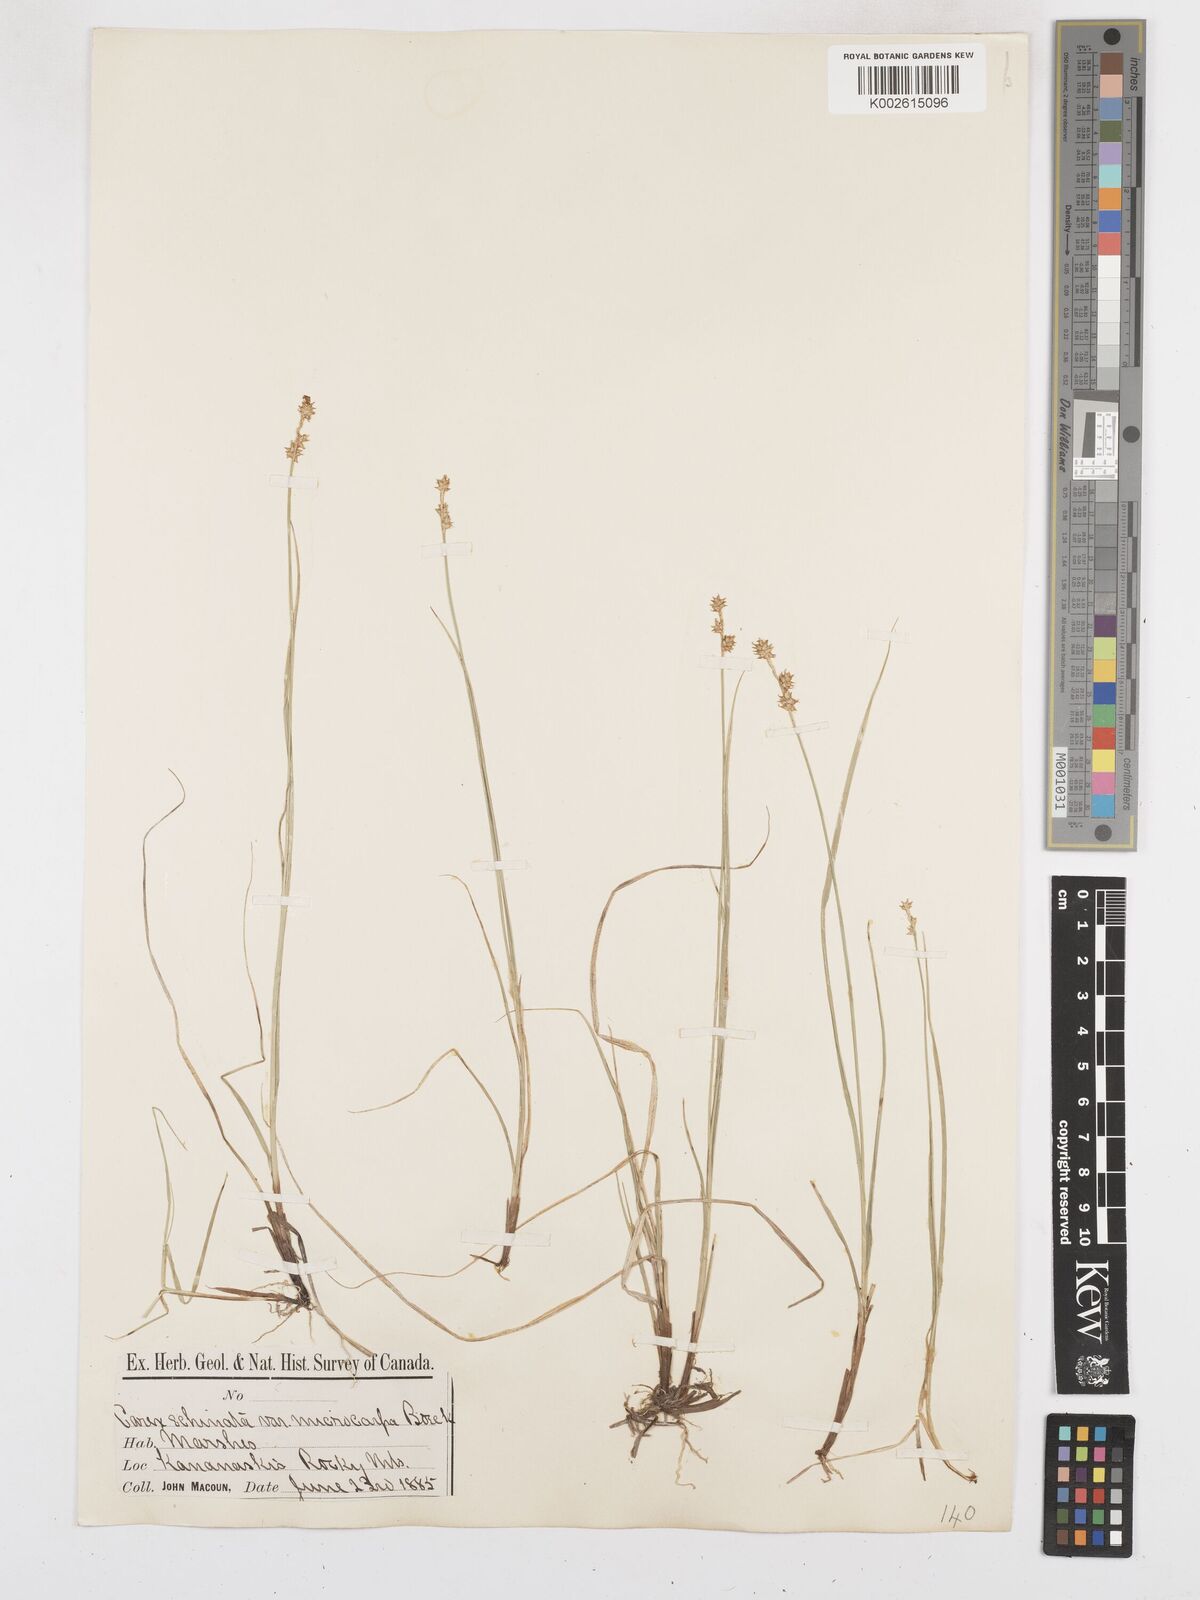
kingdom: Plantae
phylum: Tracheophyta
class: Liliopsida
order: Poales
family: Cyperaceae
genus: Carex
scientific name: Carex echinata
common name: Star sedge
